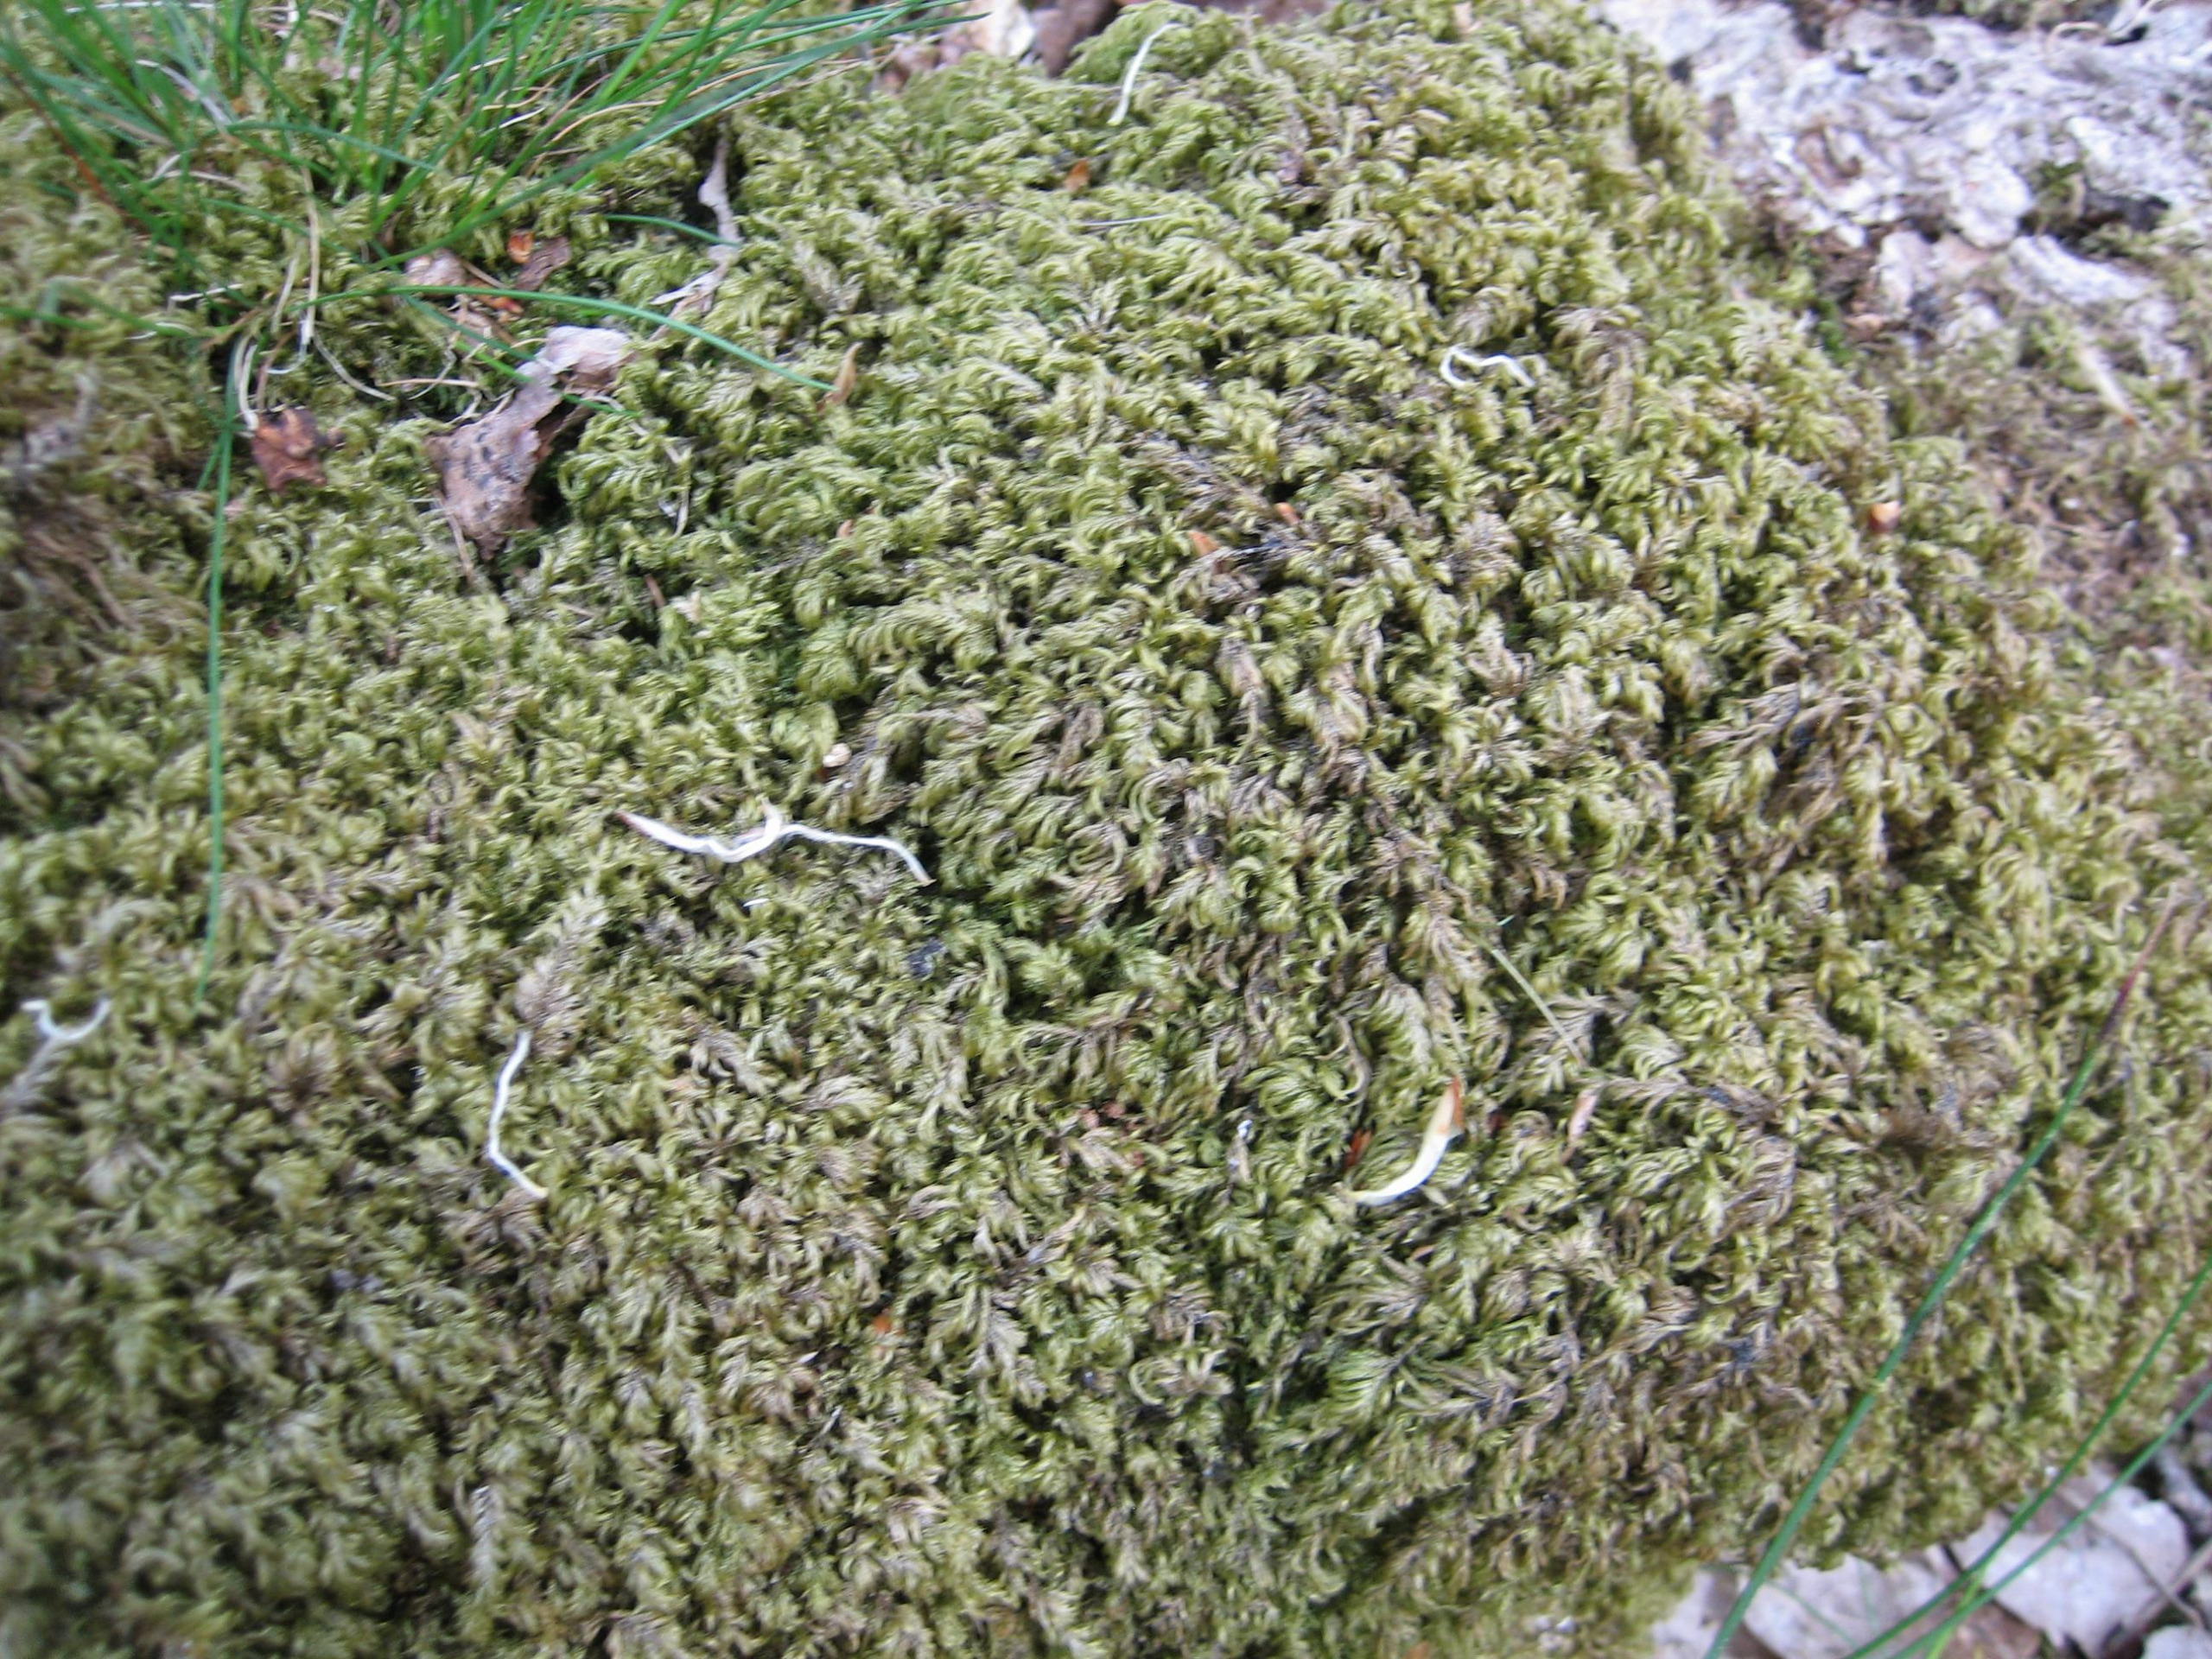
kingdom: Plantae
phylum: Bryophyta
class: Bryopsida
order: Hypnales
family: Lembophyllaceae
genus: Pseudisothecium
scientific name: Pseudisothecium myosuroides
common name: Slank stammemos
